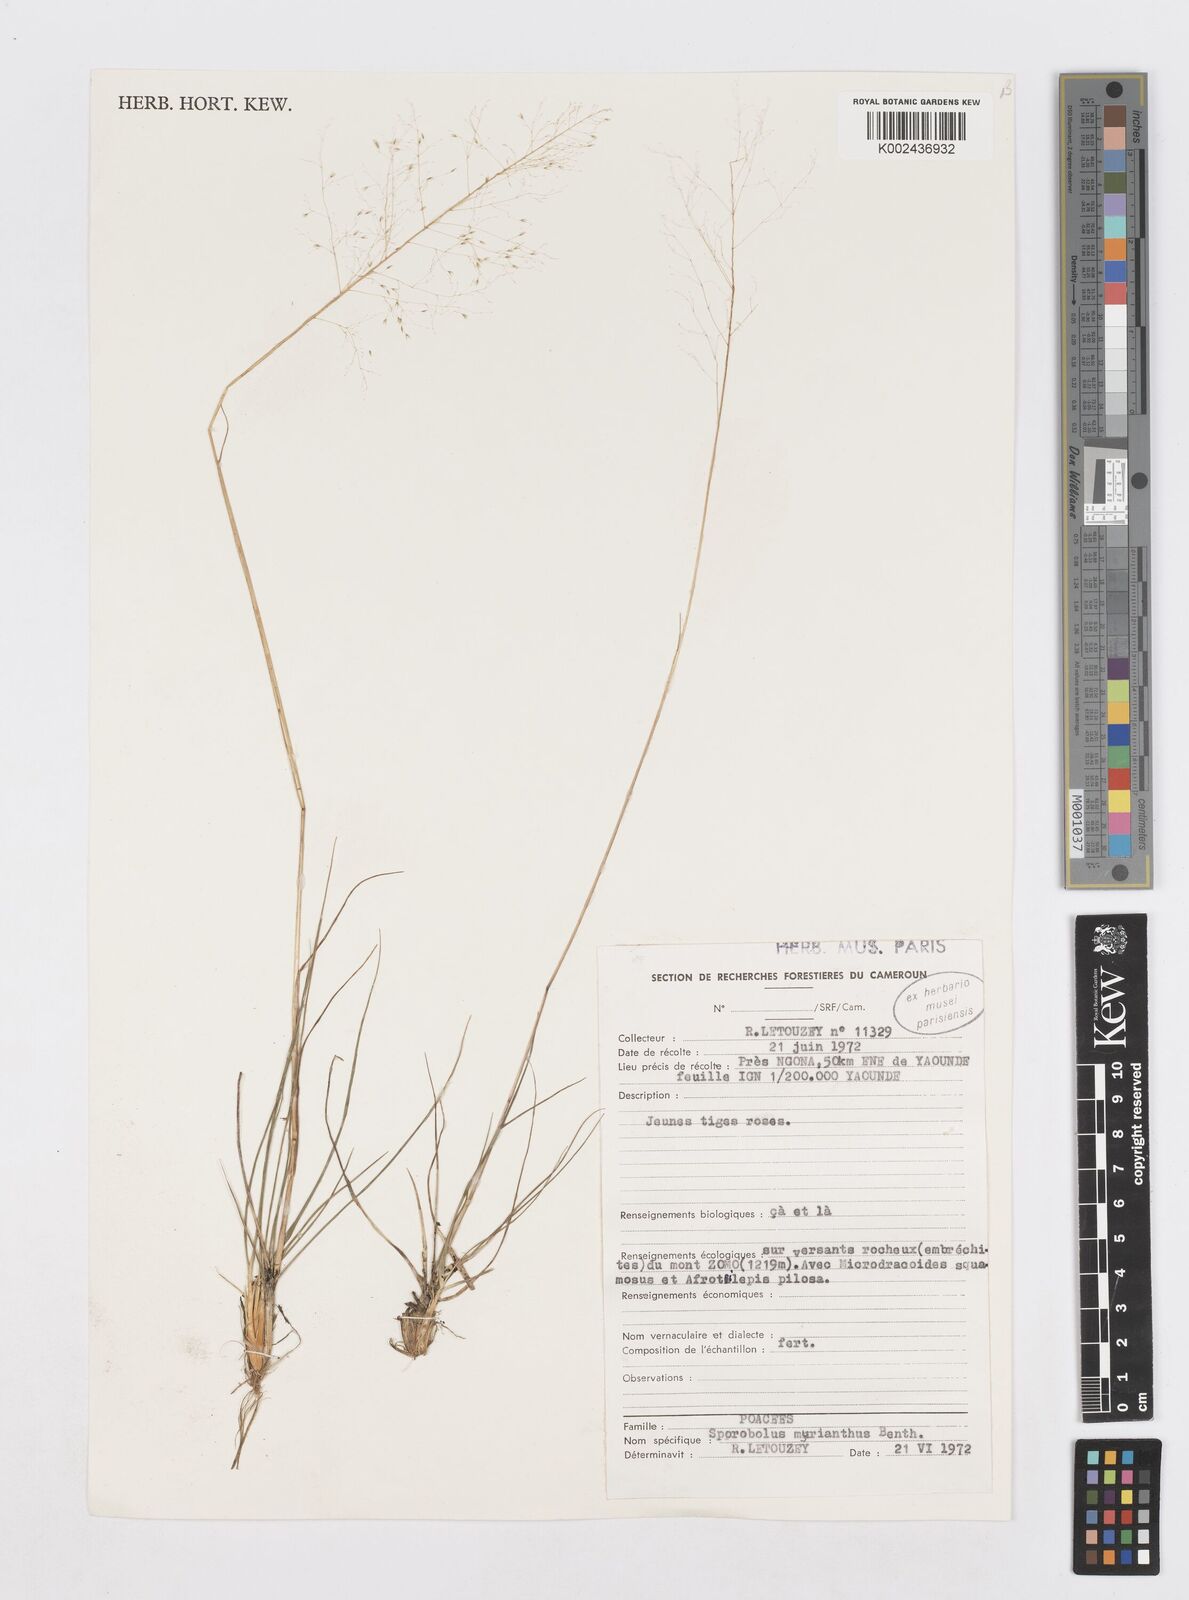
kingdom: Plantae
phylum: Tracheophyta
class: Liliopsida
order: Poales
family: Poaceae
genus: Sporobolus
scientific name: Sporobolus myrianthus
